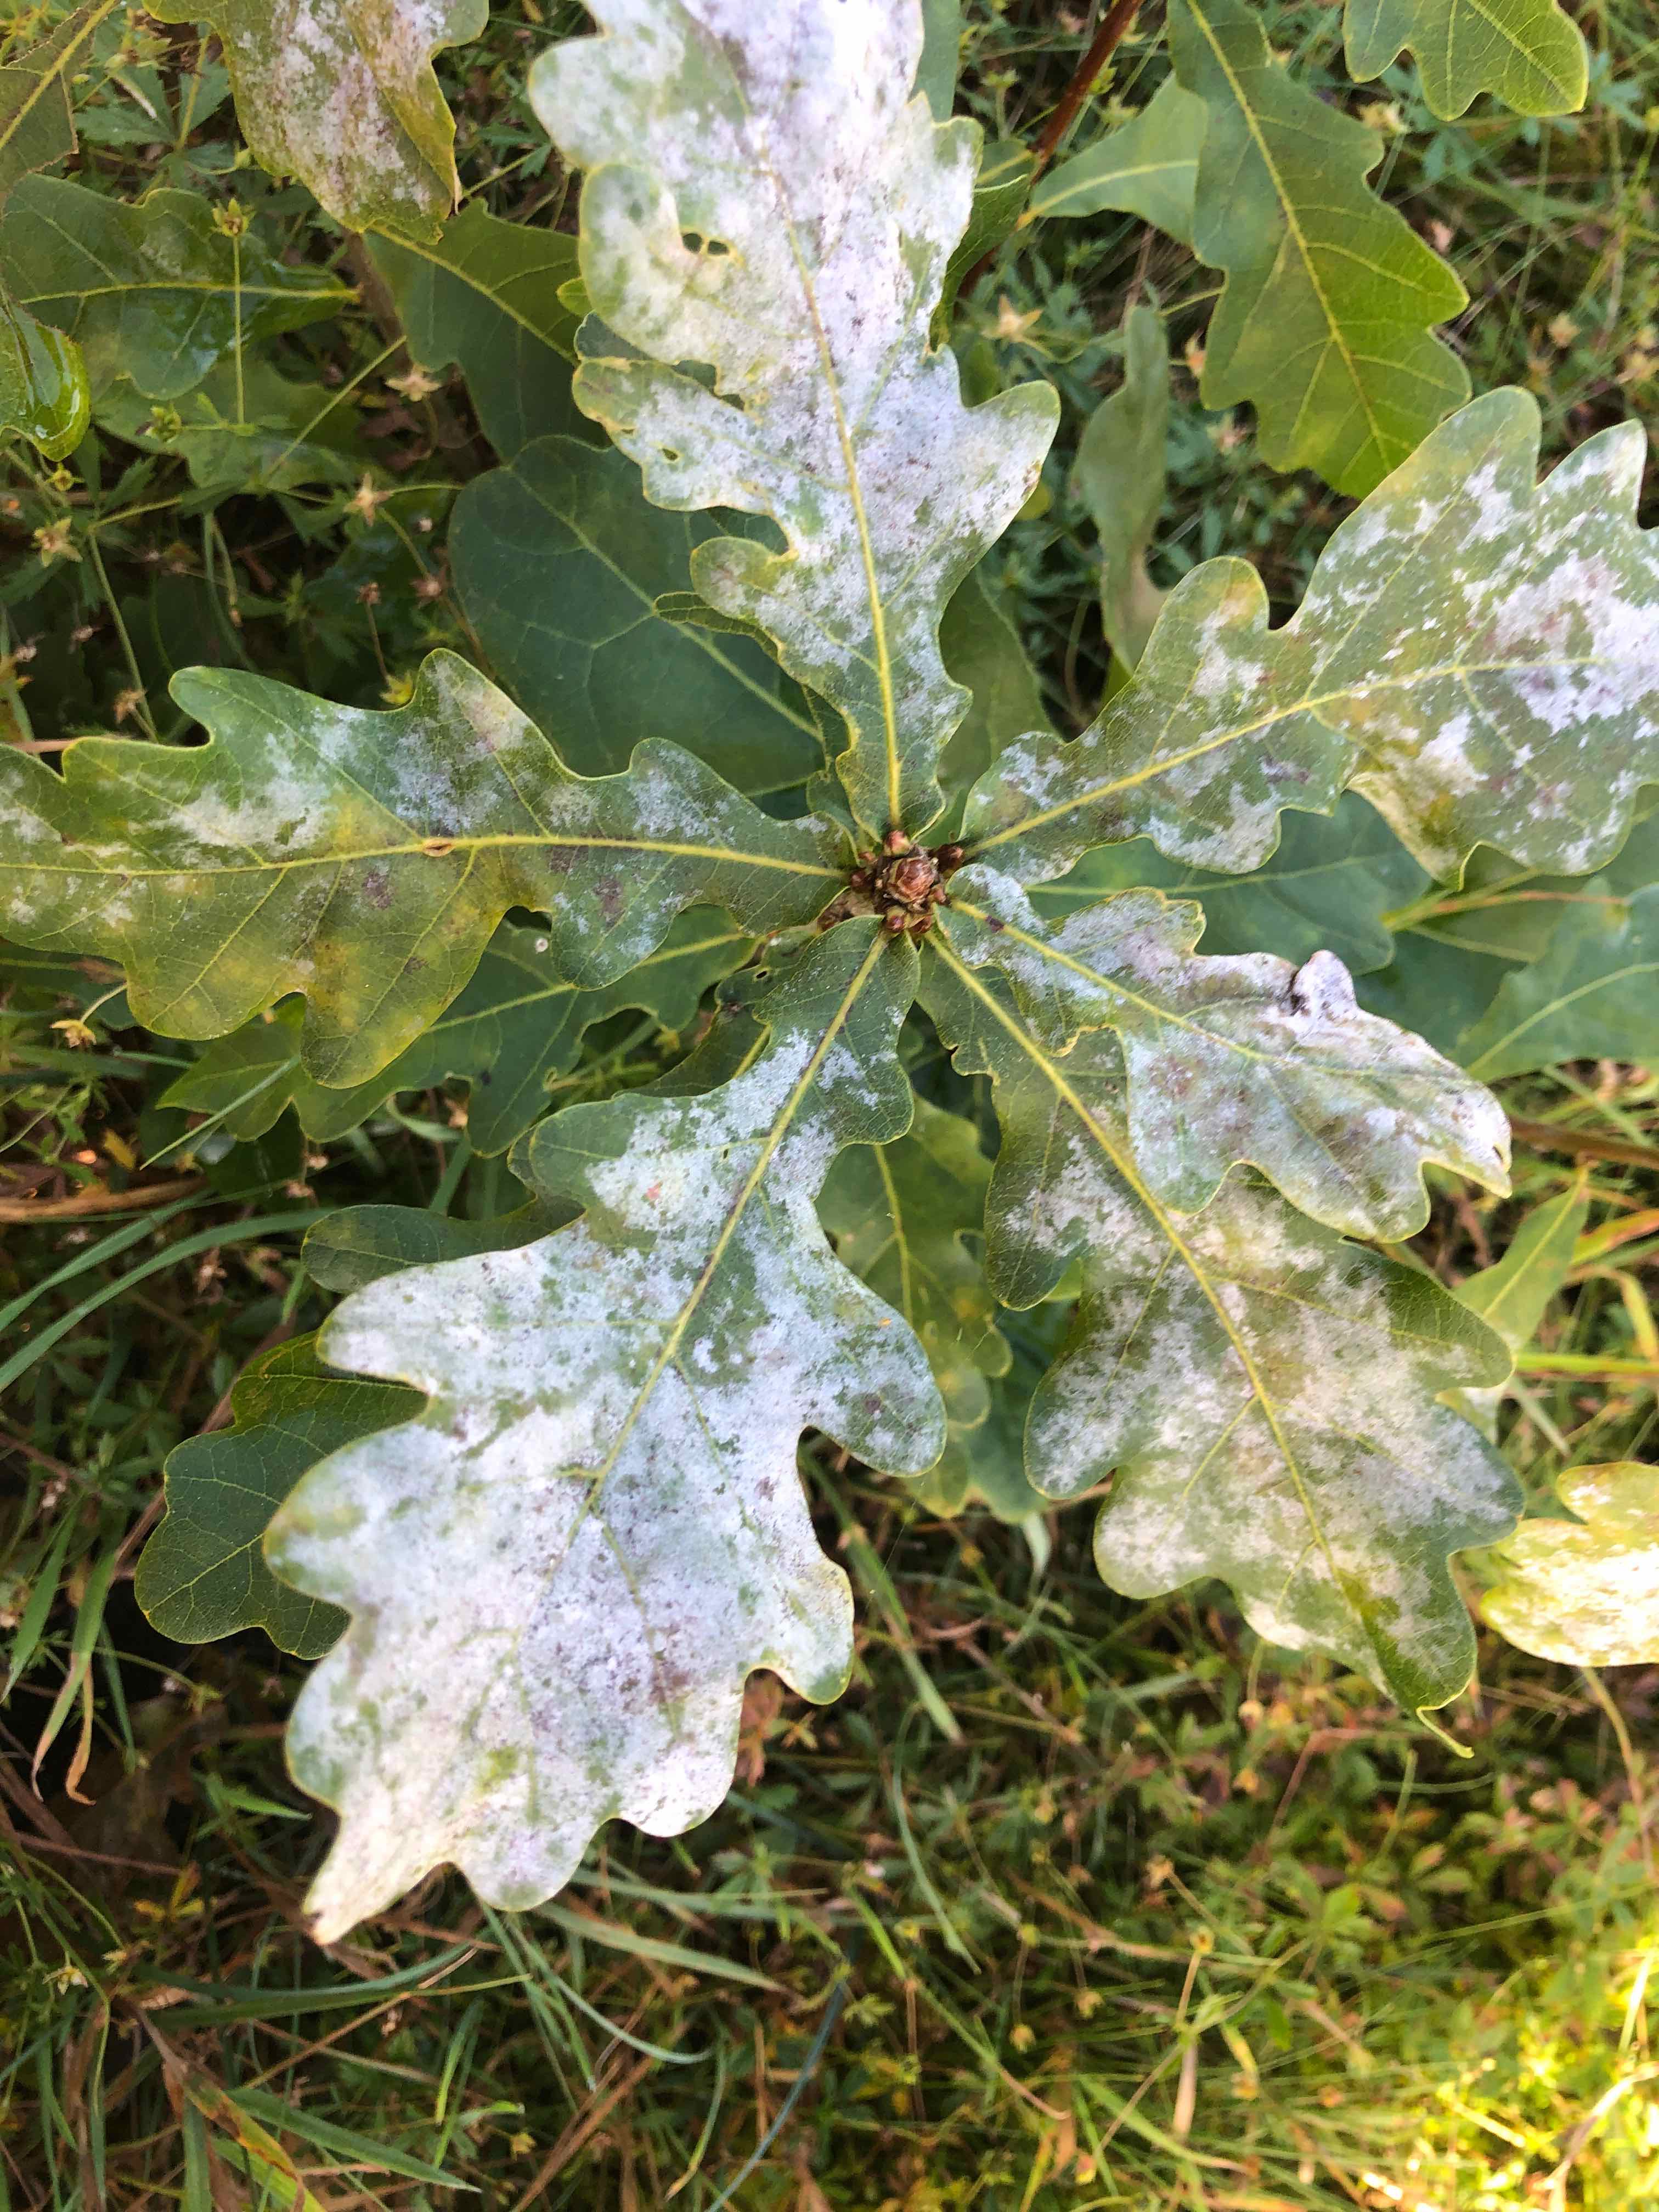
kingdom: Fungi
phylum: Ascomycota
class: Leotiomycetes
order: Helotiales
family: Erysiphaceae
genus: Erysiphe
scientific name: Erysiphe alphitoides
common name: ege-meldug
